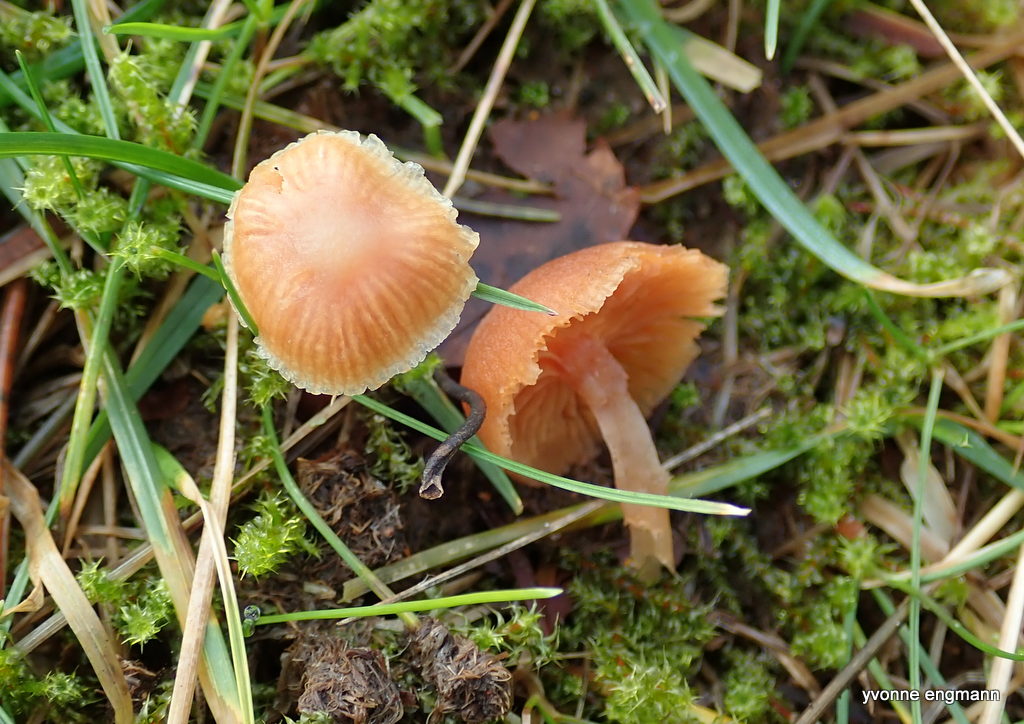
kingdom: Fungi
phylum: Basidiomycota
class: Agaricomycetes
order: Agaricales
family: Tubariaceae
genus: Tubaria
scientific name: Tubaria furfuracea
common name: kliddet fnughat
